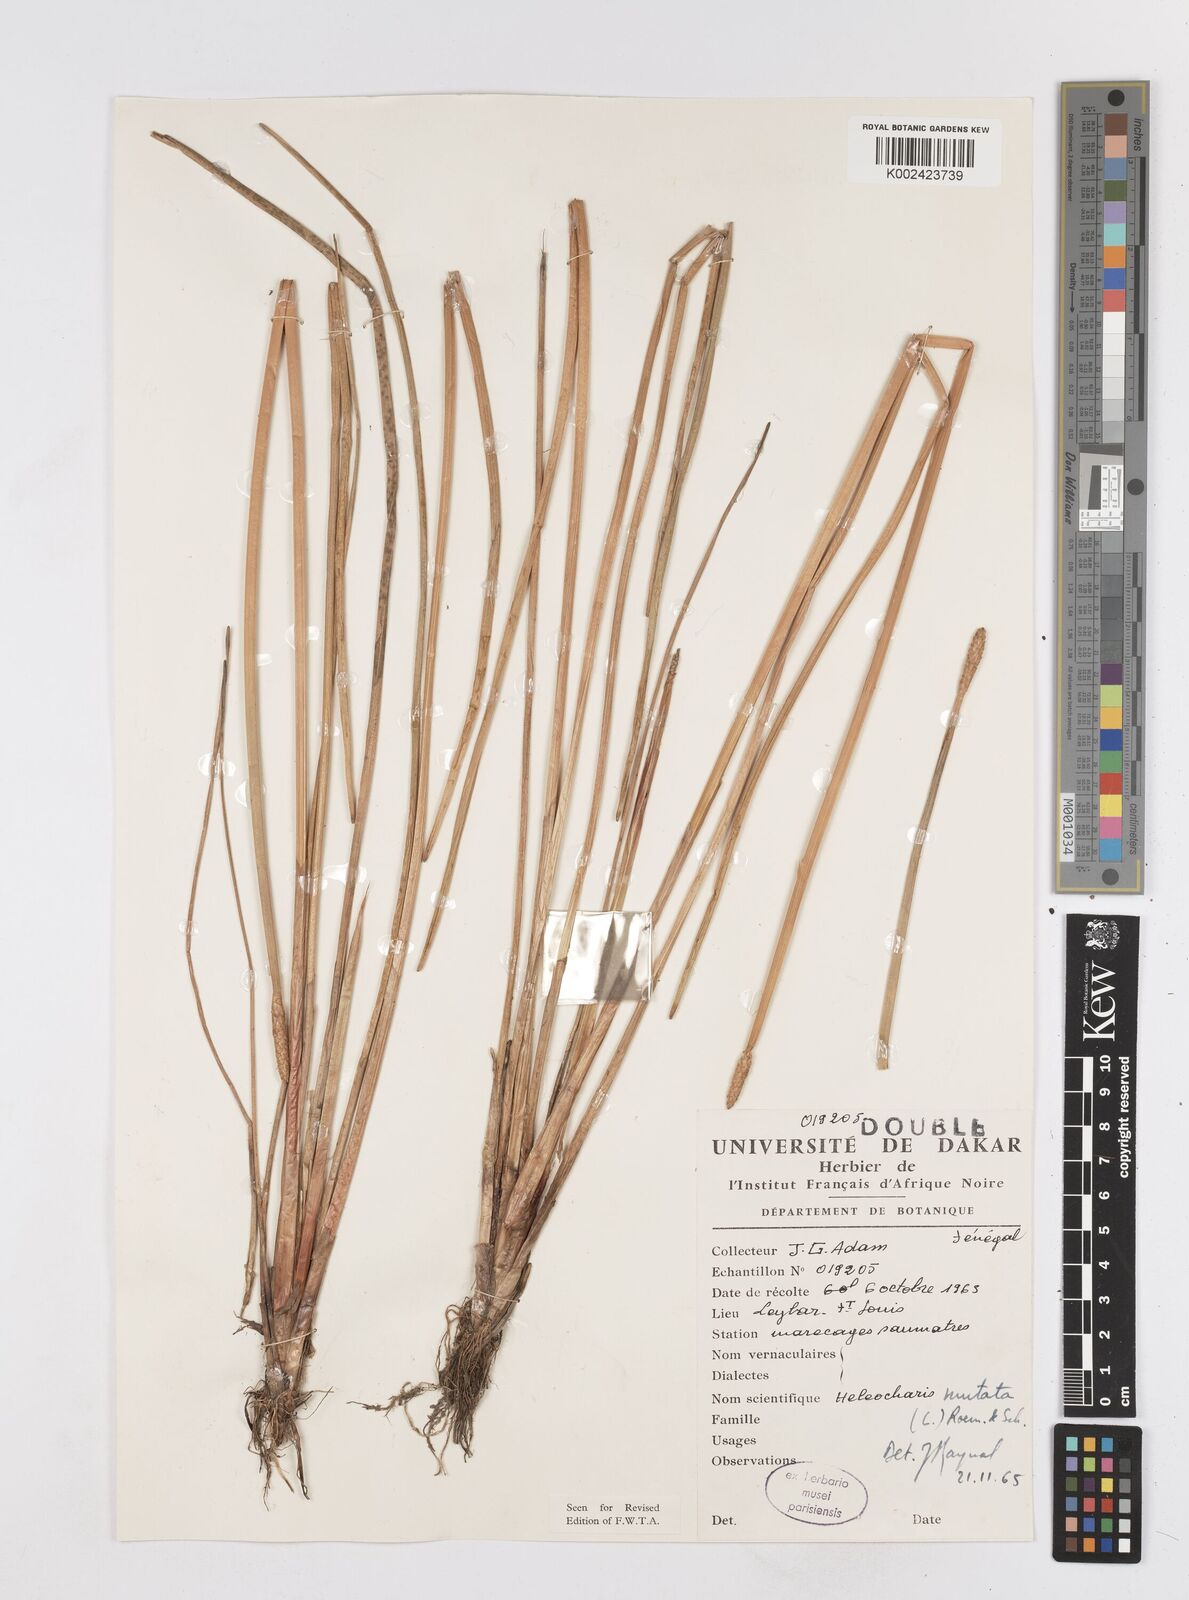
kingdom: Plantae
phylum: Tracheophyta
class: Liliopsida
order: Poales
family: Cyperaceae
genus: Eleocharis
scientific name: Eleocharis mutata
